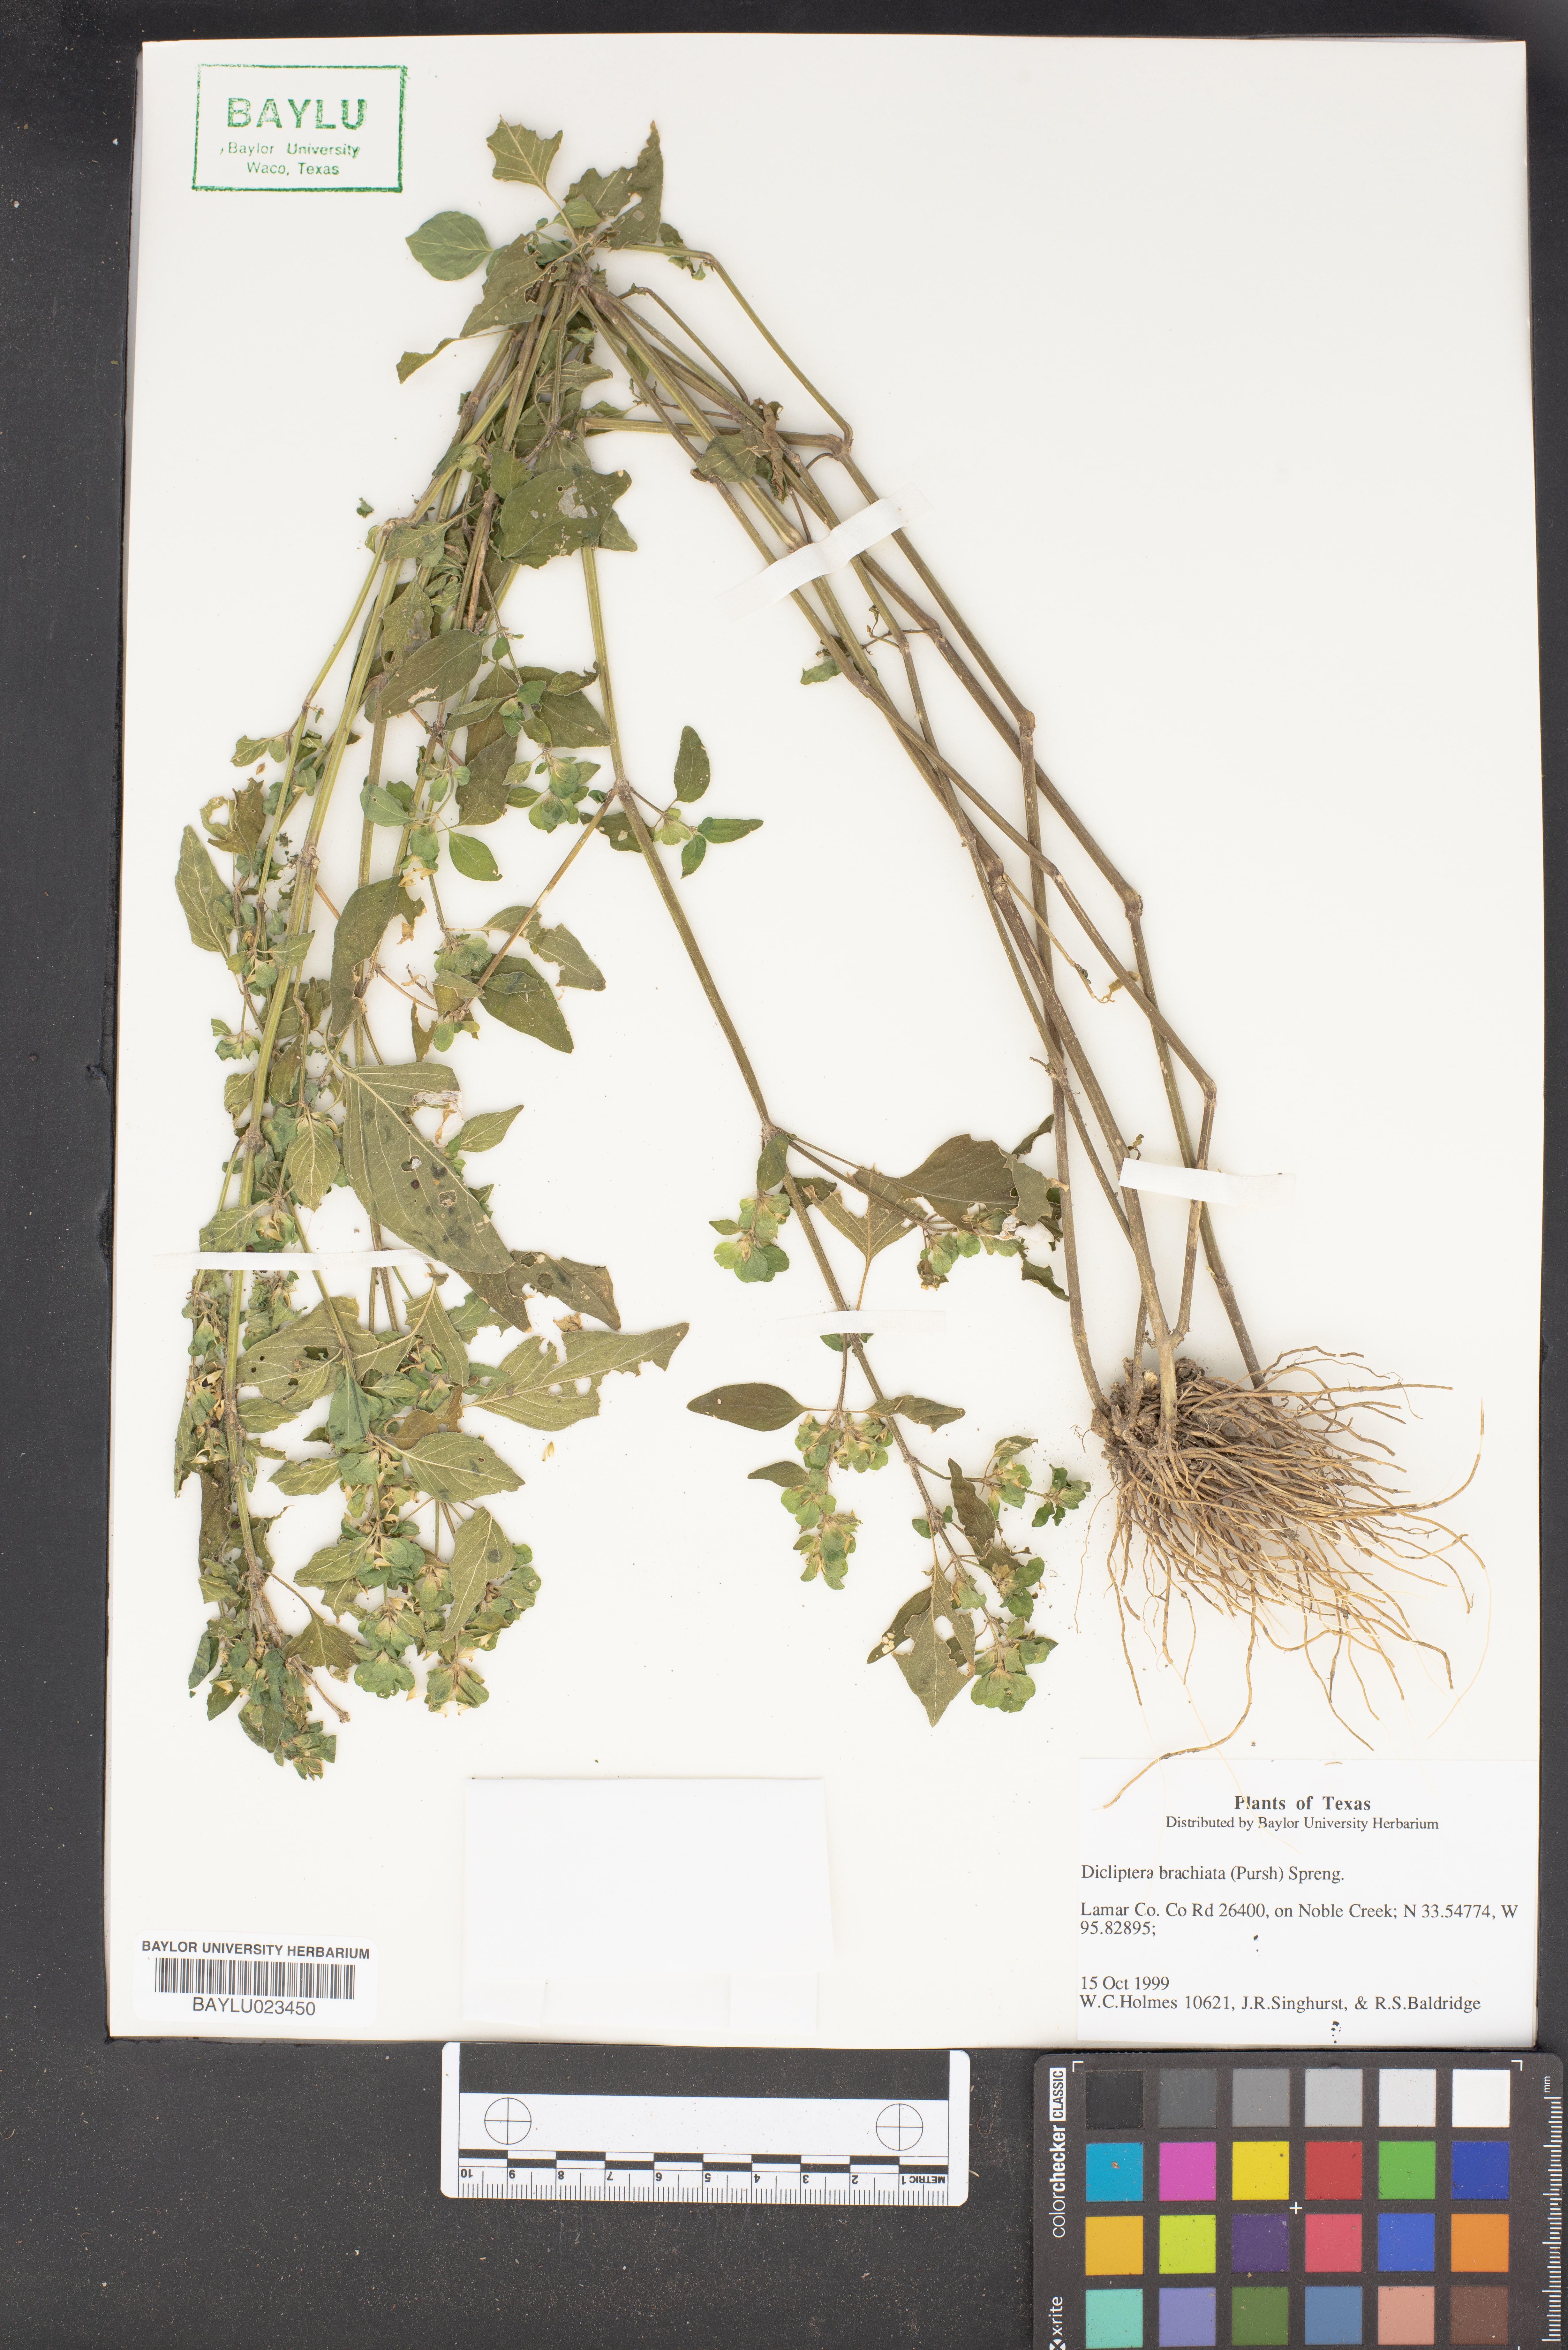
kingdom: Plantae
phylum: Tracheophyta
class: Magnoliopsida
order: Lamiales
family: Acanthaceae
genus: Dicliptera
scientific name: Dicliptera brachiata
